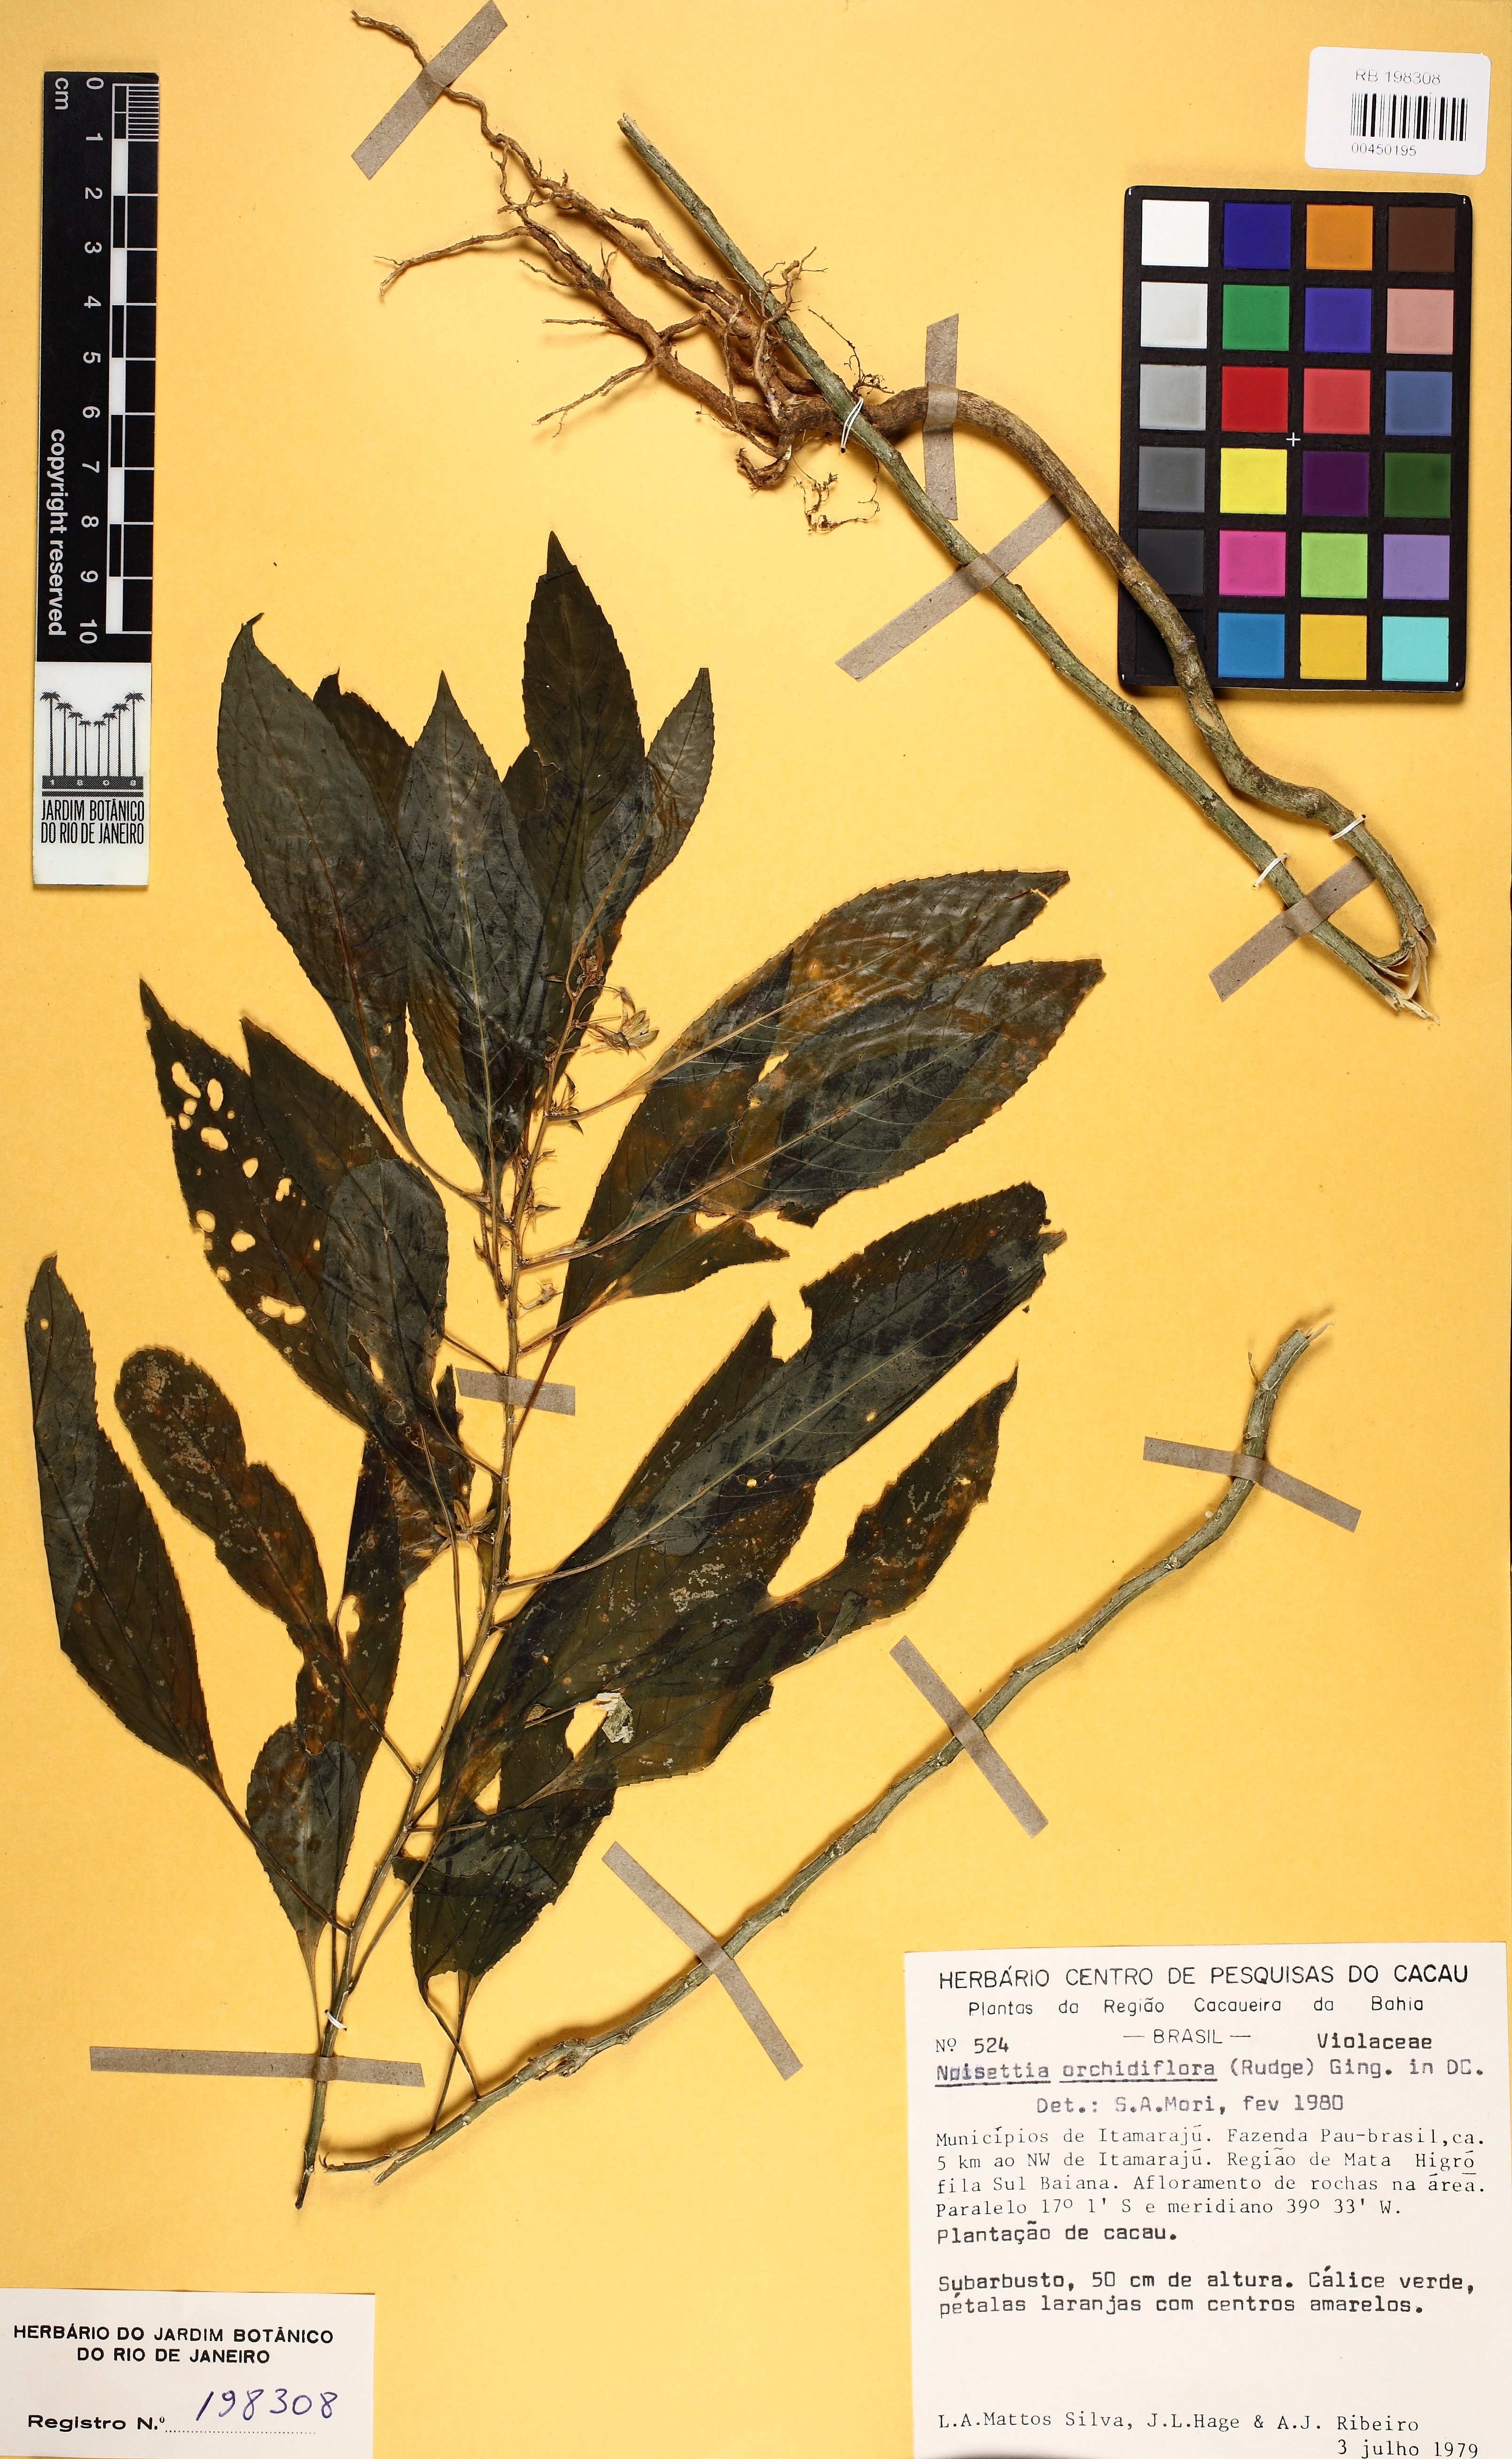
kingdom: Plantae
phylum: Tracheophyta
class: Magnoliopsida
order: Malpighiales
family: Violaceae
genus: Noisettia
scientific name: Noisettia orchidiflora
